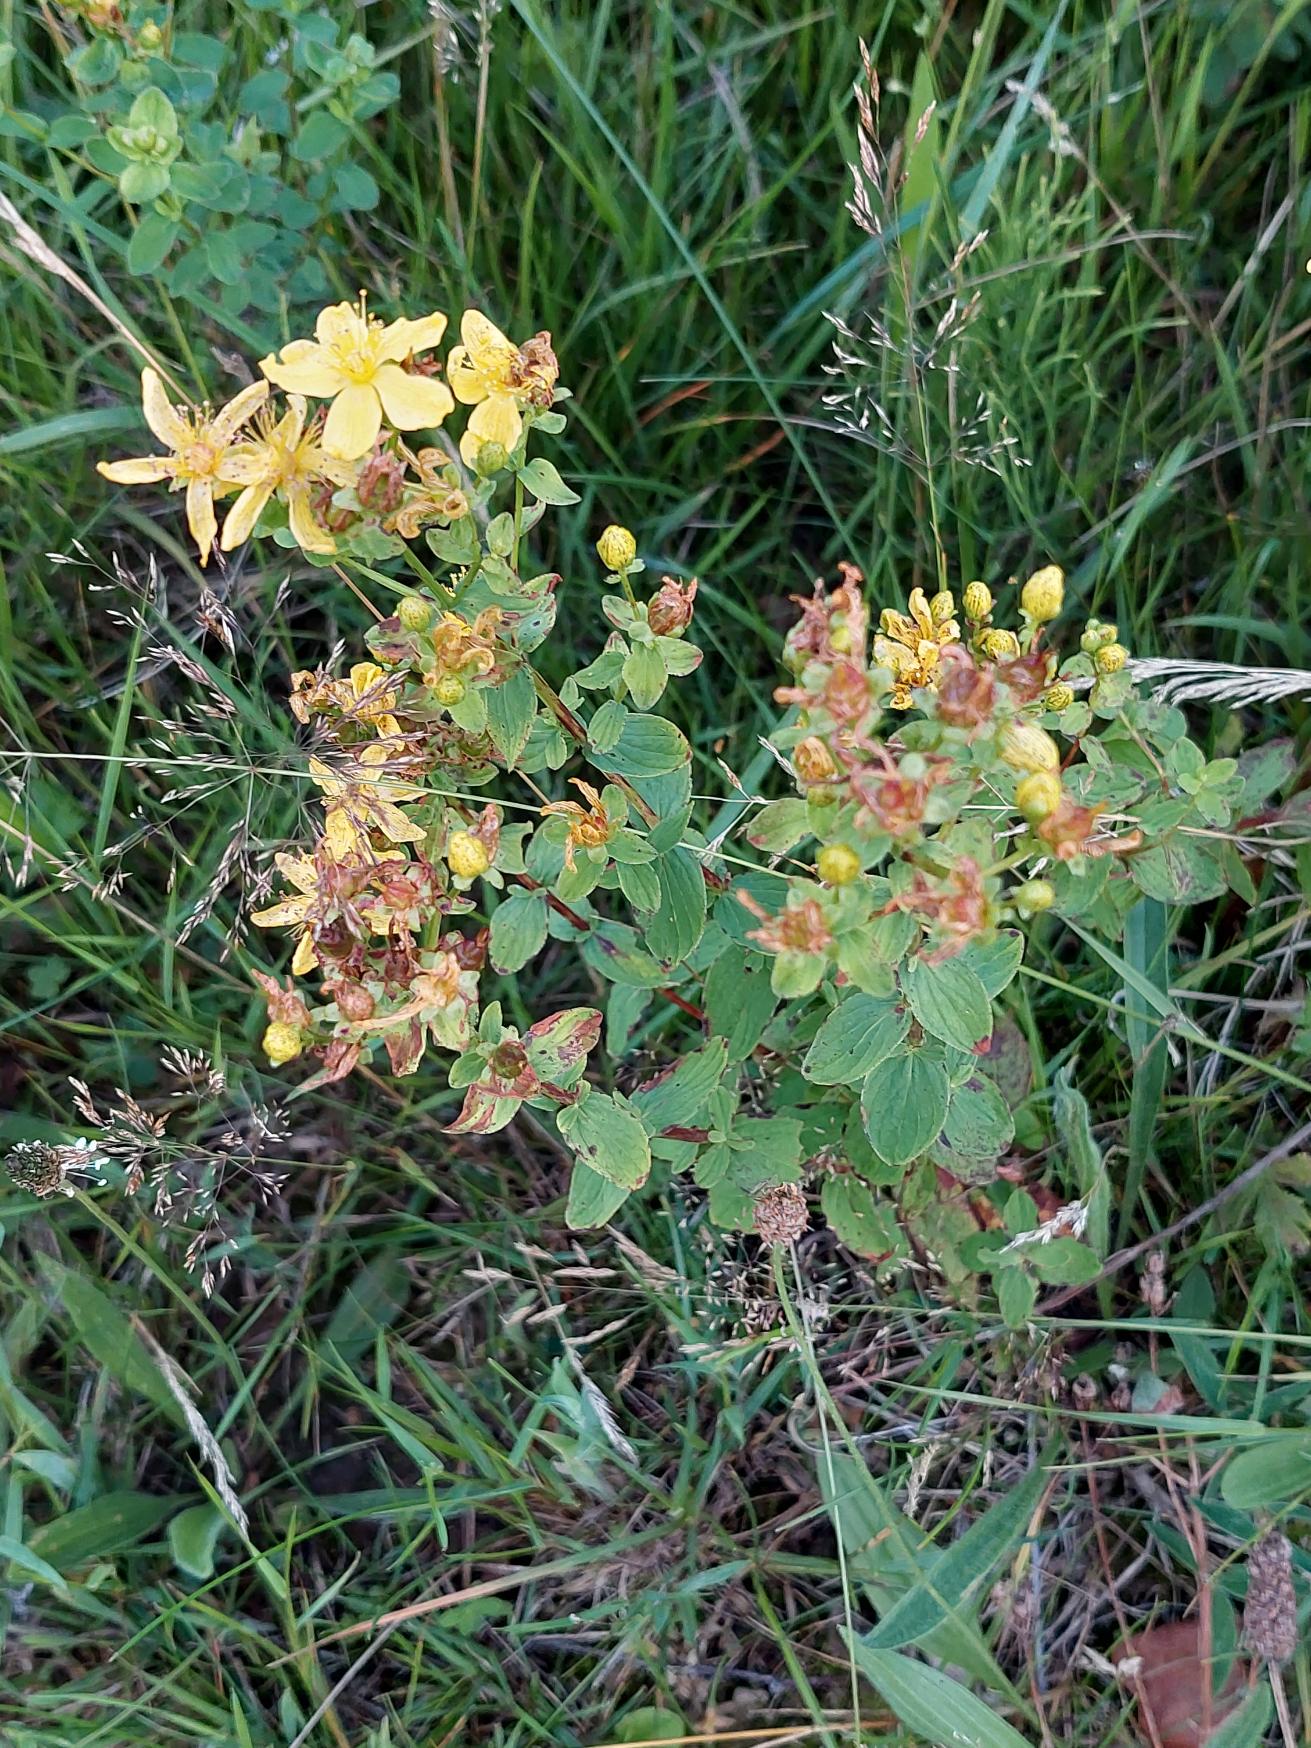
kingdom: Plantae
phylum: Tracheophyta
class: Magnoliopsida
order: Malpighiales
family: Hypericaceae
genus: Hypericum
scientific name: Hypericum maculatum
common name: Kantet perikon
